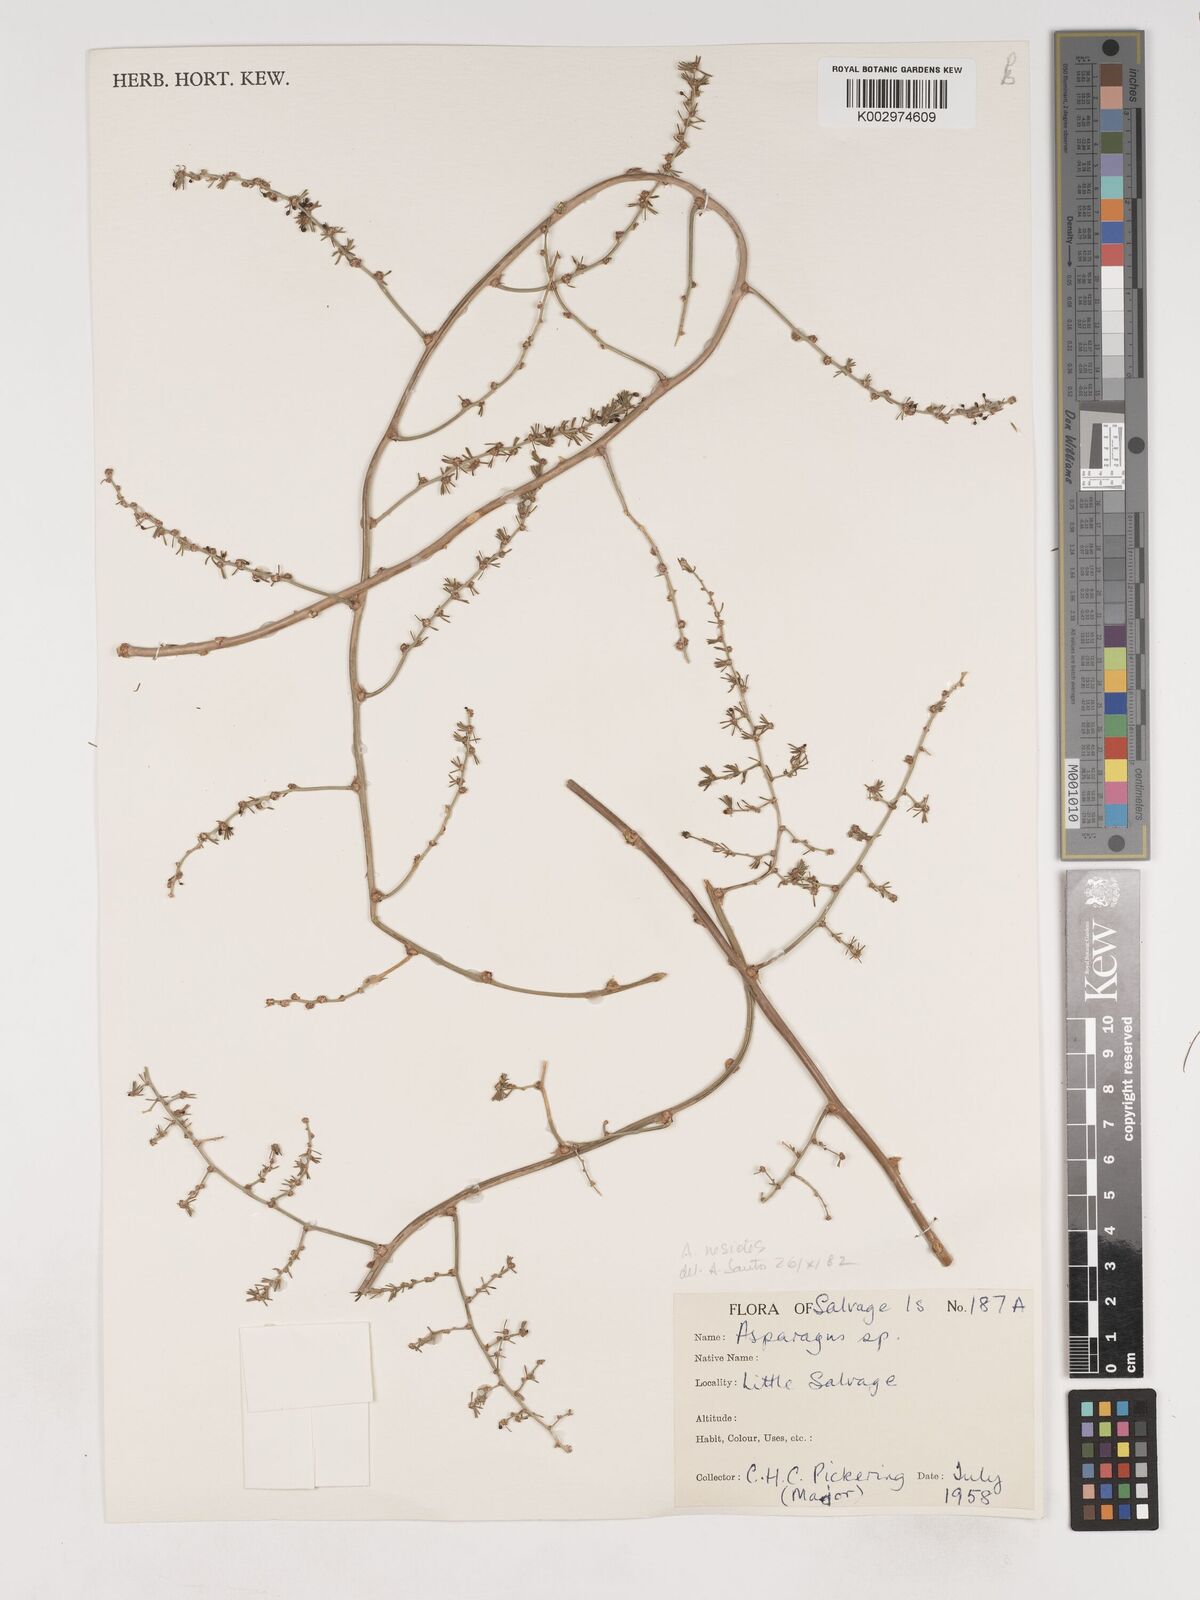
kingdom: Plantae
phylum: Tracheophyta
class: Liliopsida
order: Asparagales
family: Asparagaceae
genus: Asparagus
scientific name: Asparagus acutifolius
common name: Wild asparagus
